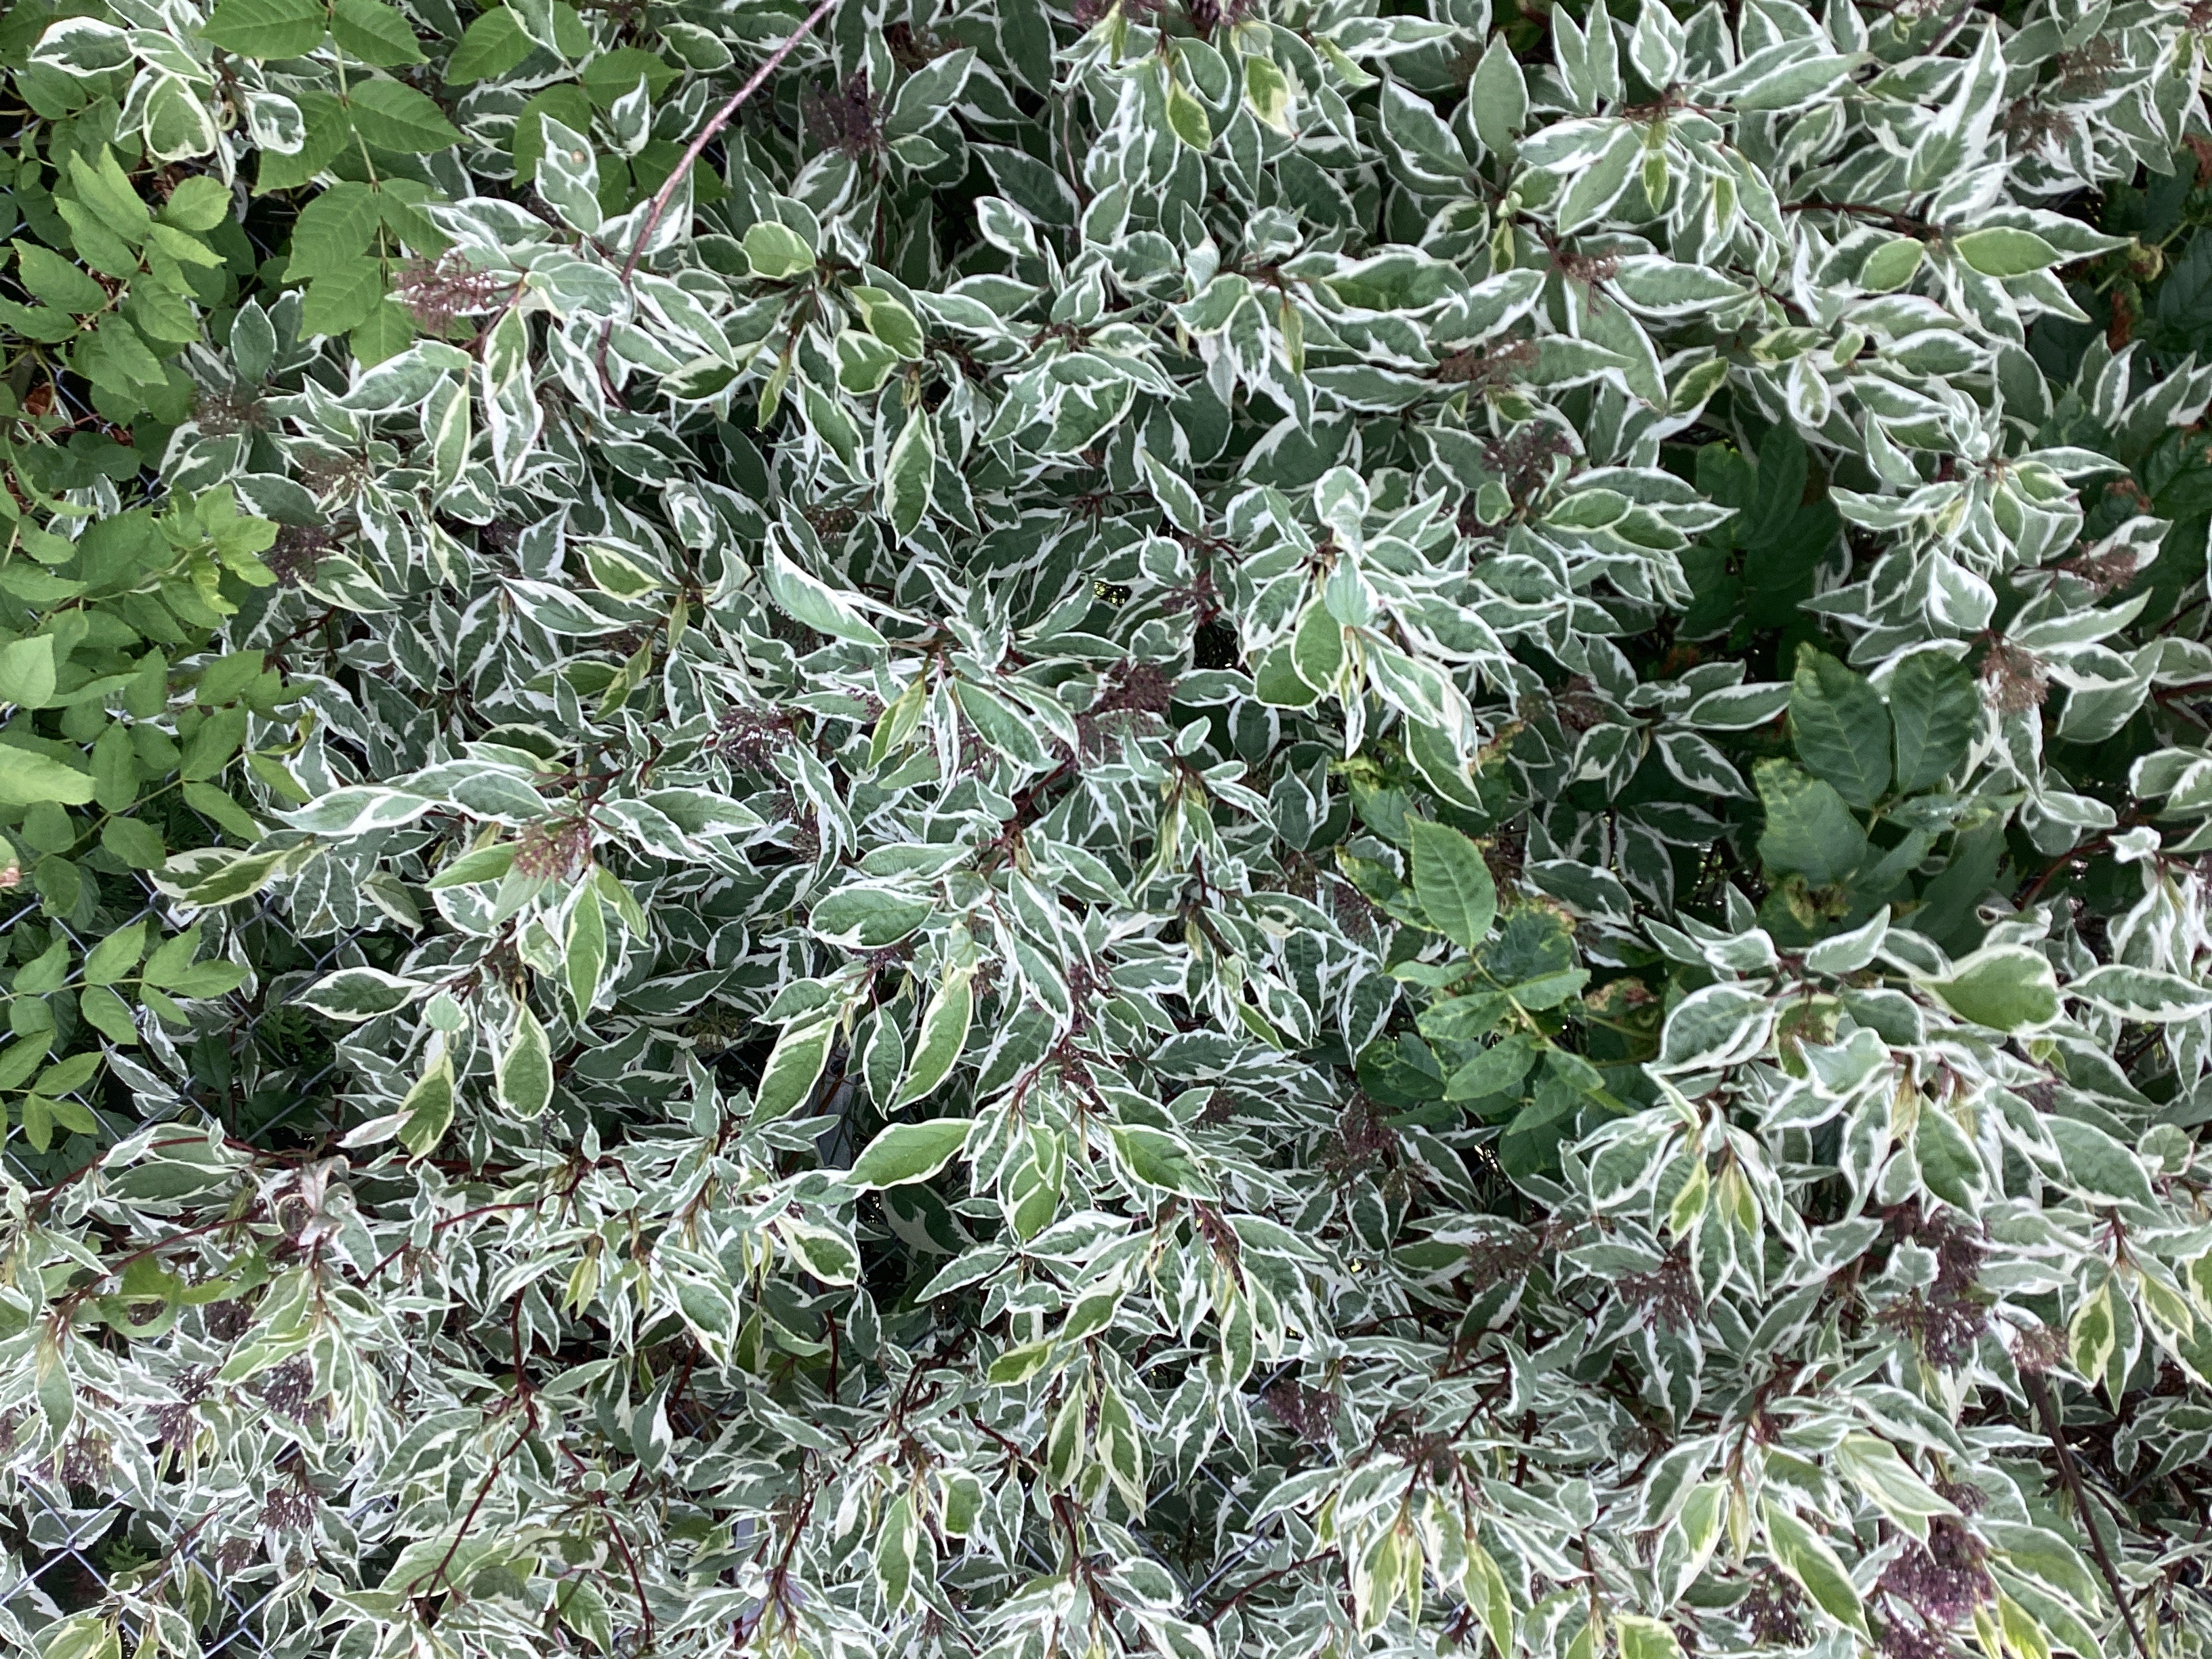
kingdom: Plantae
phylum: Tracheophyta
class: Magnoliopsida
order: Cornales
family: Cornaceae
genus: Cornus
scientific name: Cornus sericea
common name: alaskakornell
